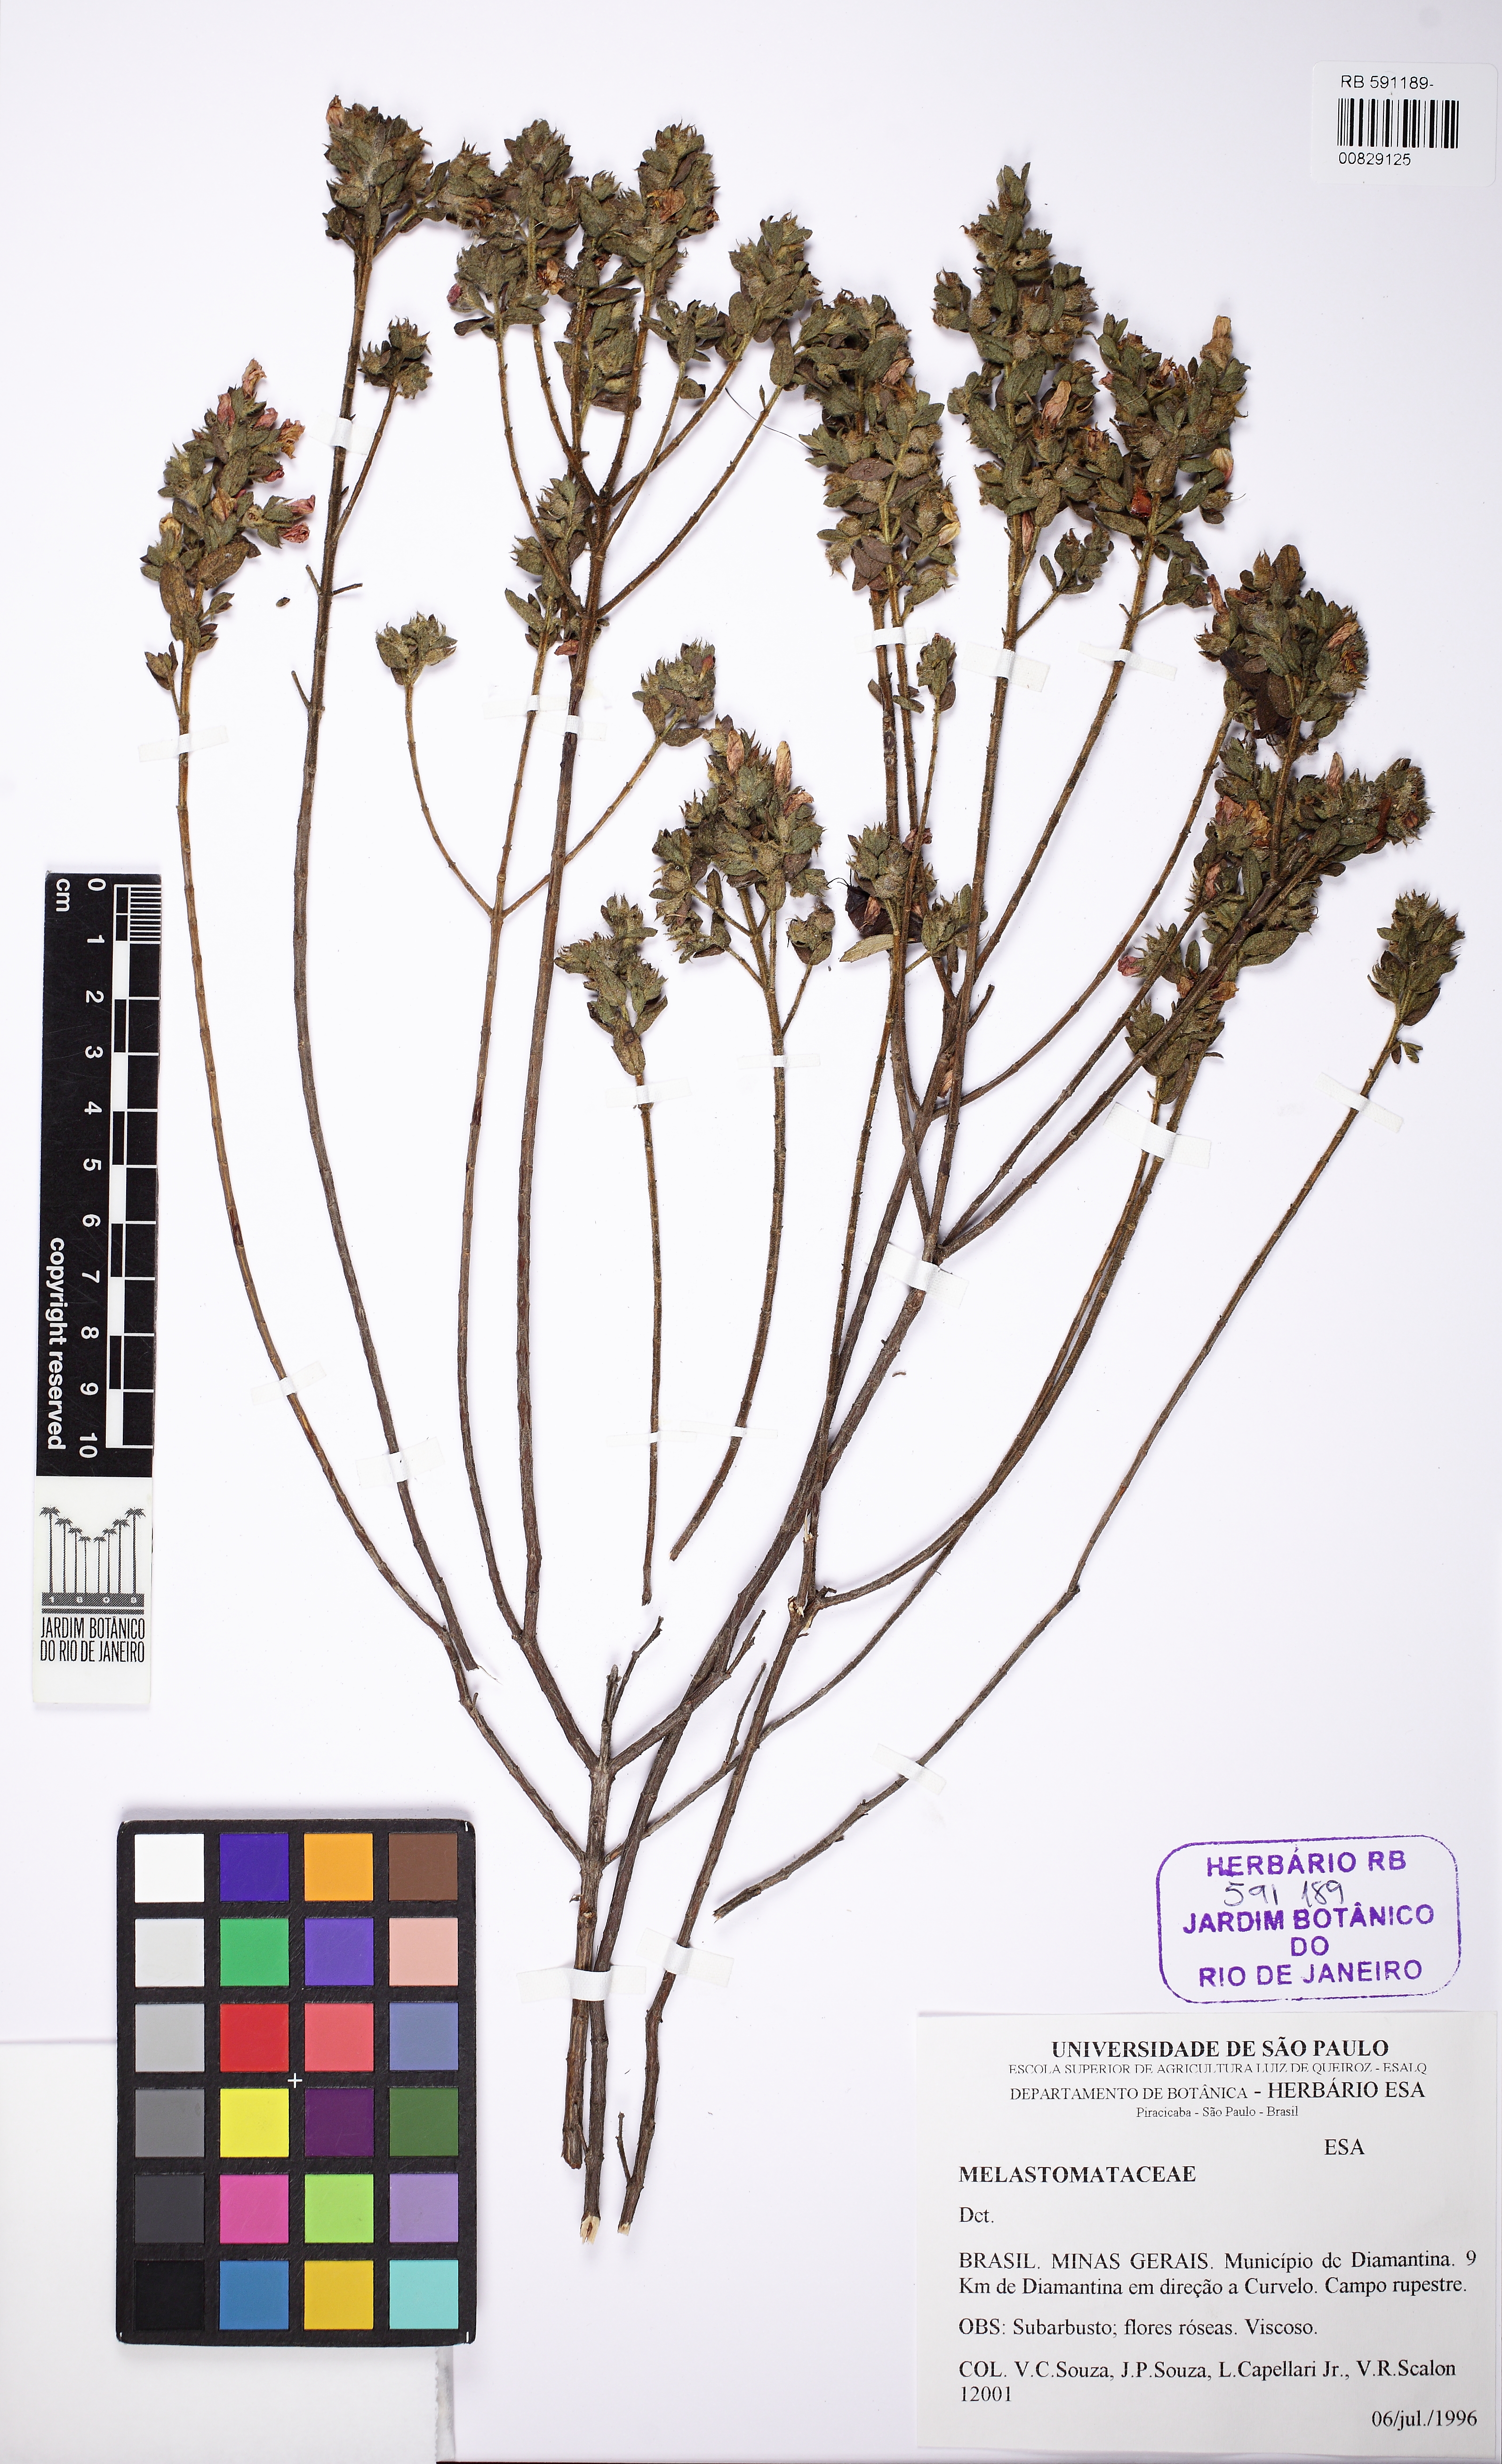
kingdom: Plantae
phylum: Tracheophyta
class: Magnoliopsida
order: Myrtales
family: Melastomataceae
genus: Microlicia
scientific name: Microlicia macrophylla
